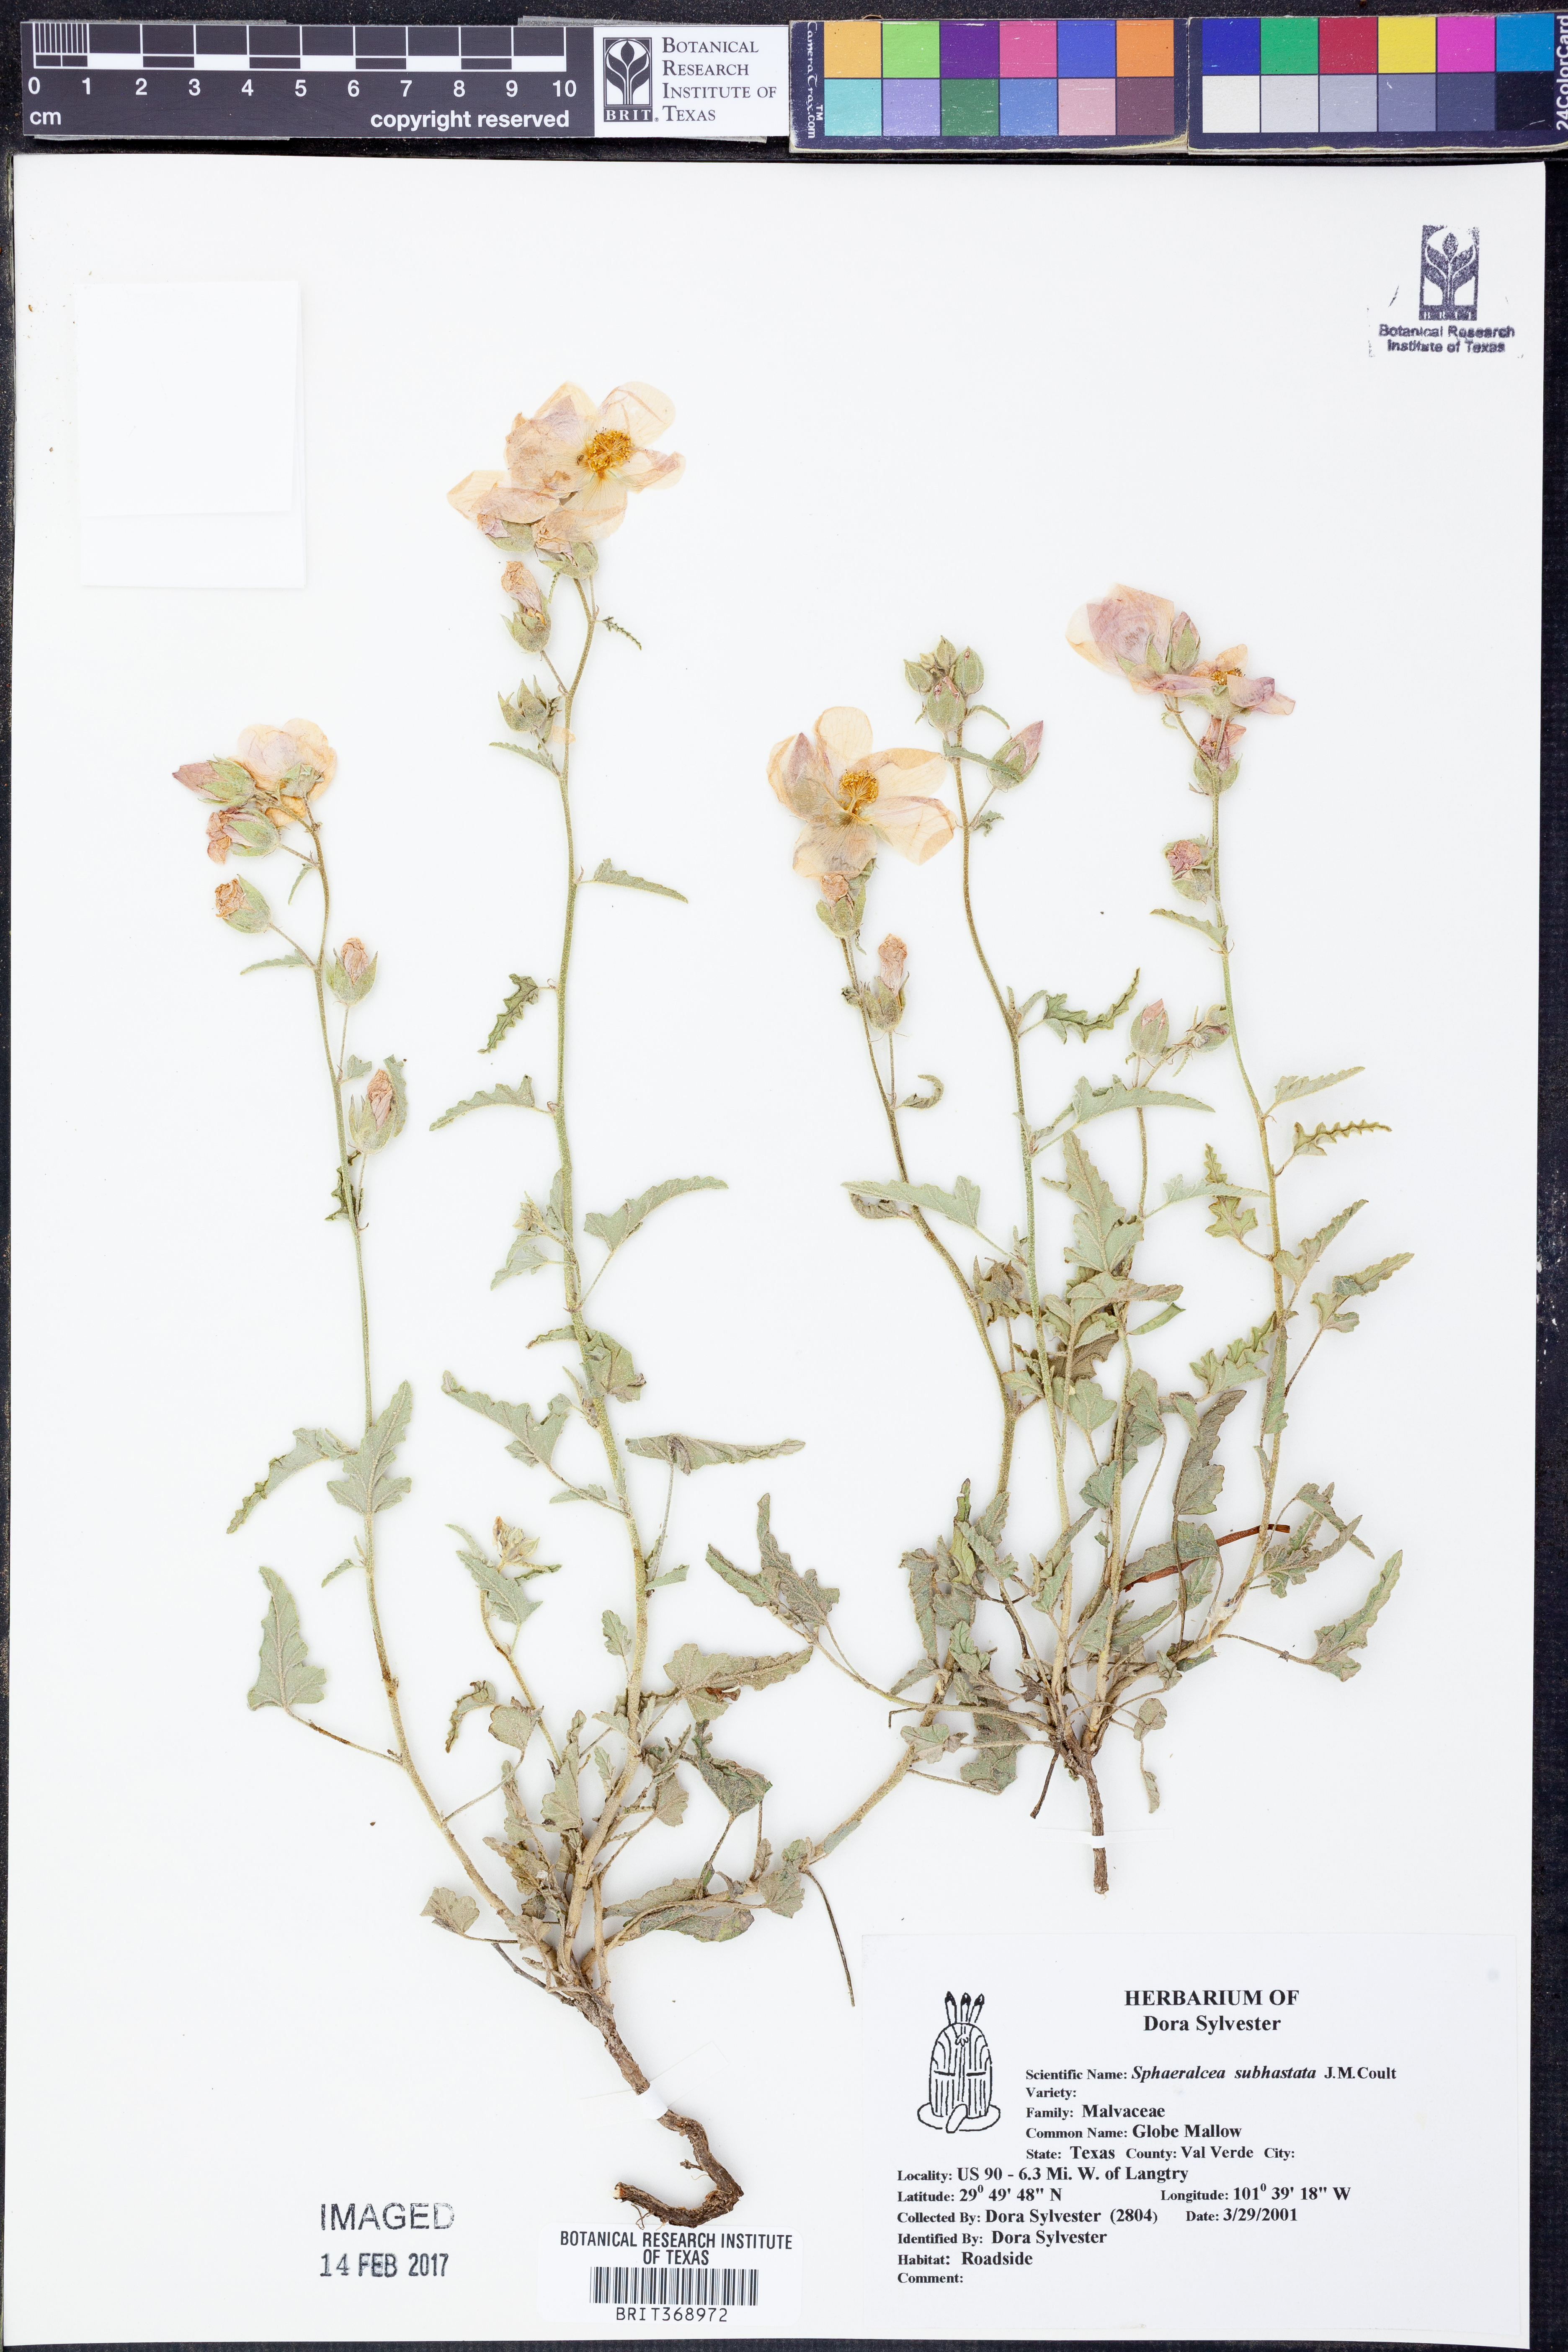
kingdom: Plantae
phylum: Tracheophyta
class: Magnoliopsida
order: Malvales
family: Malvaceae
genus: Sphaeralcea
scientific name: Sphaeralcea hastulata
